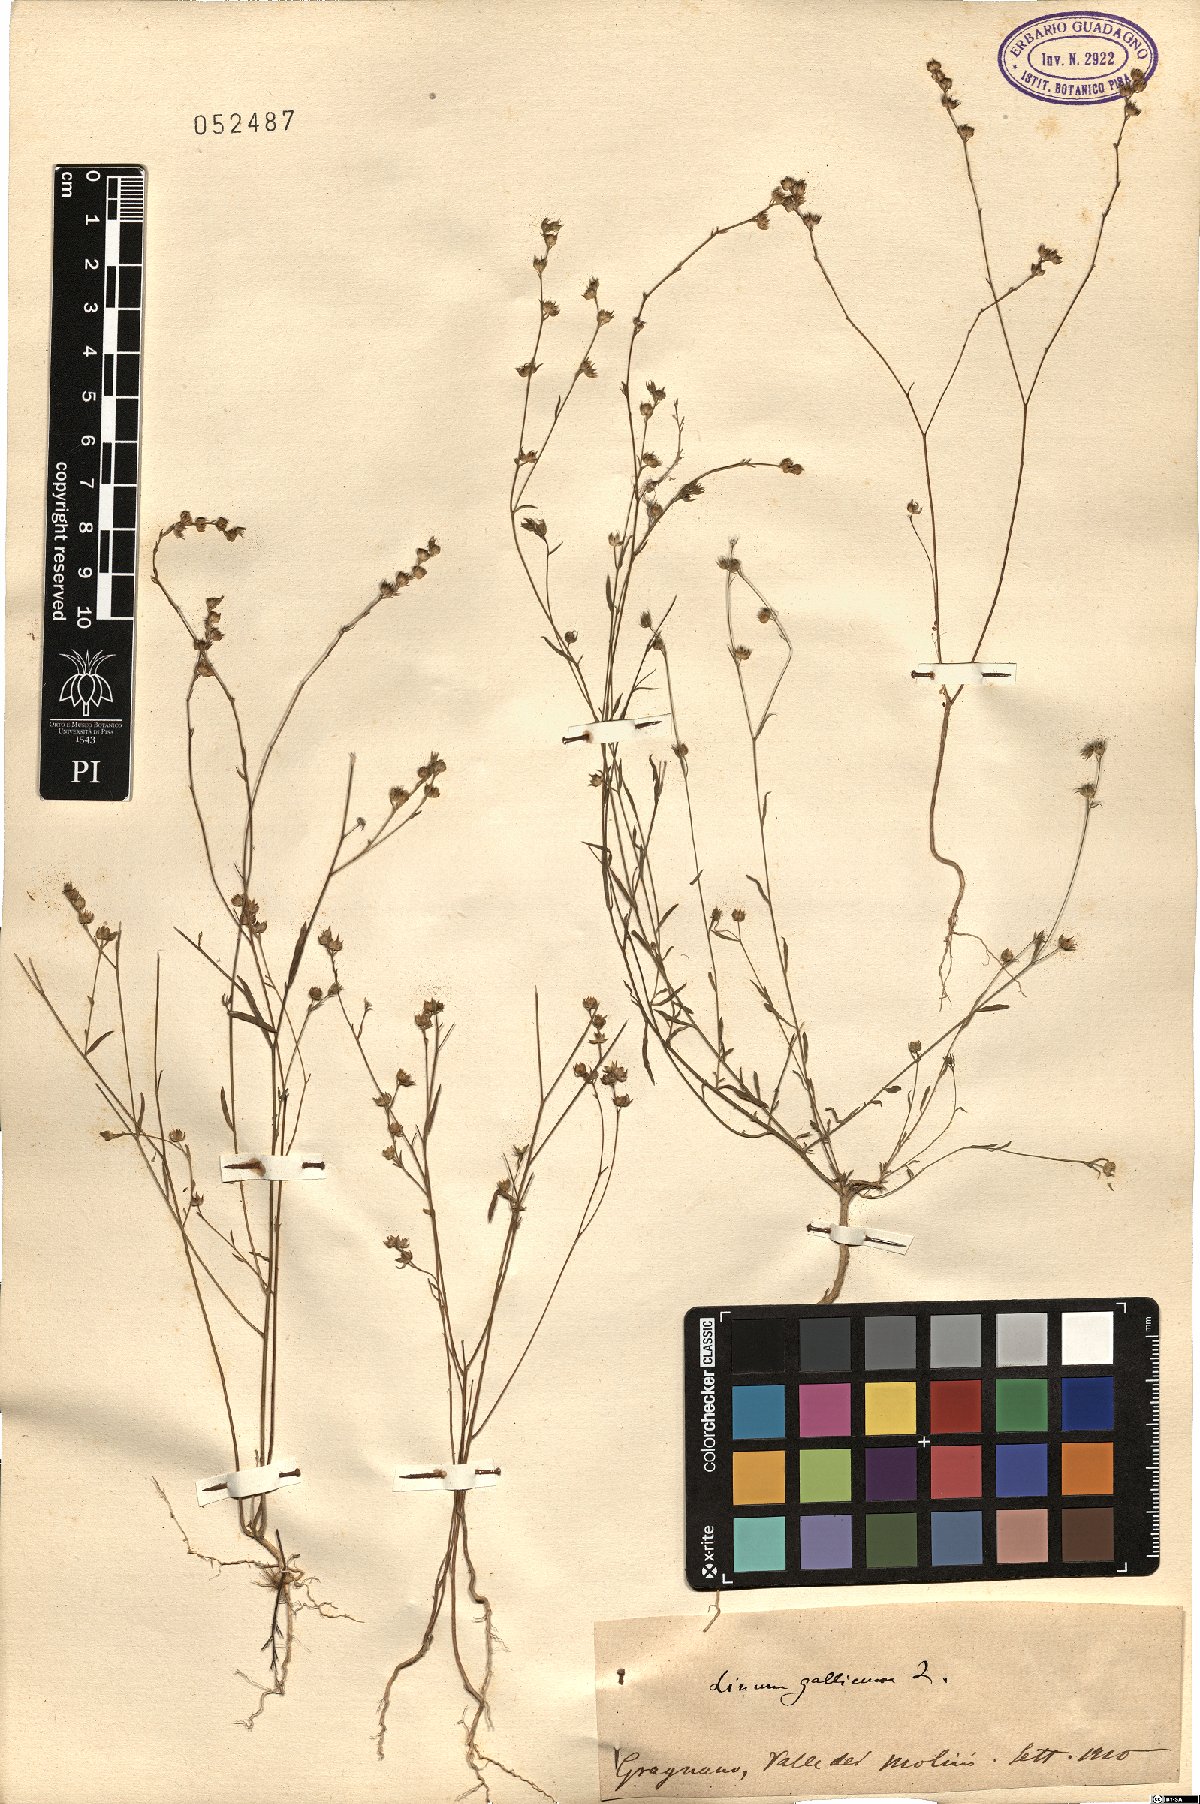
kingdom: Plantae
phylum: Tracheophyta
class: Magnoliopsida
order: Malpighiales
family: Linaceae
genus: Linum
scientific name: Linum trigynum
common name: French flax
